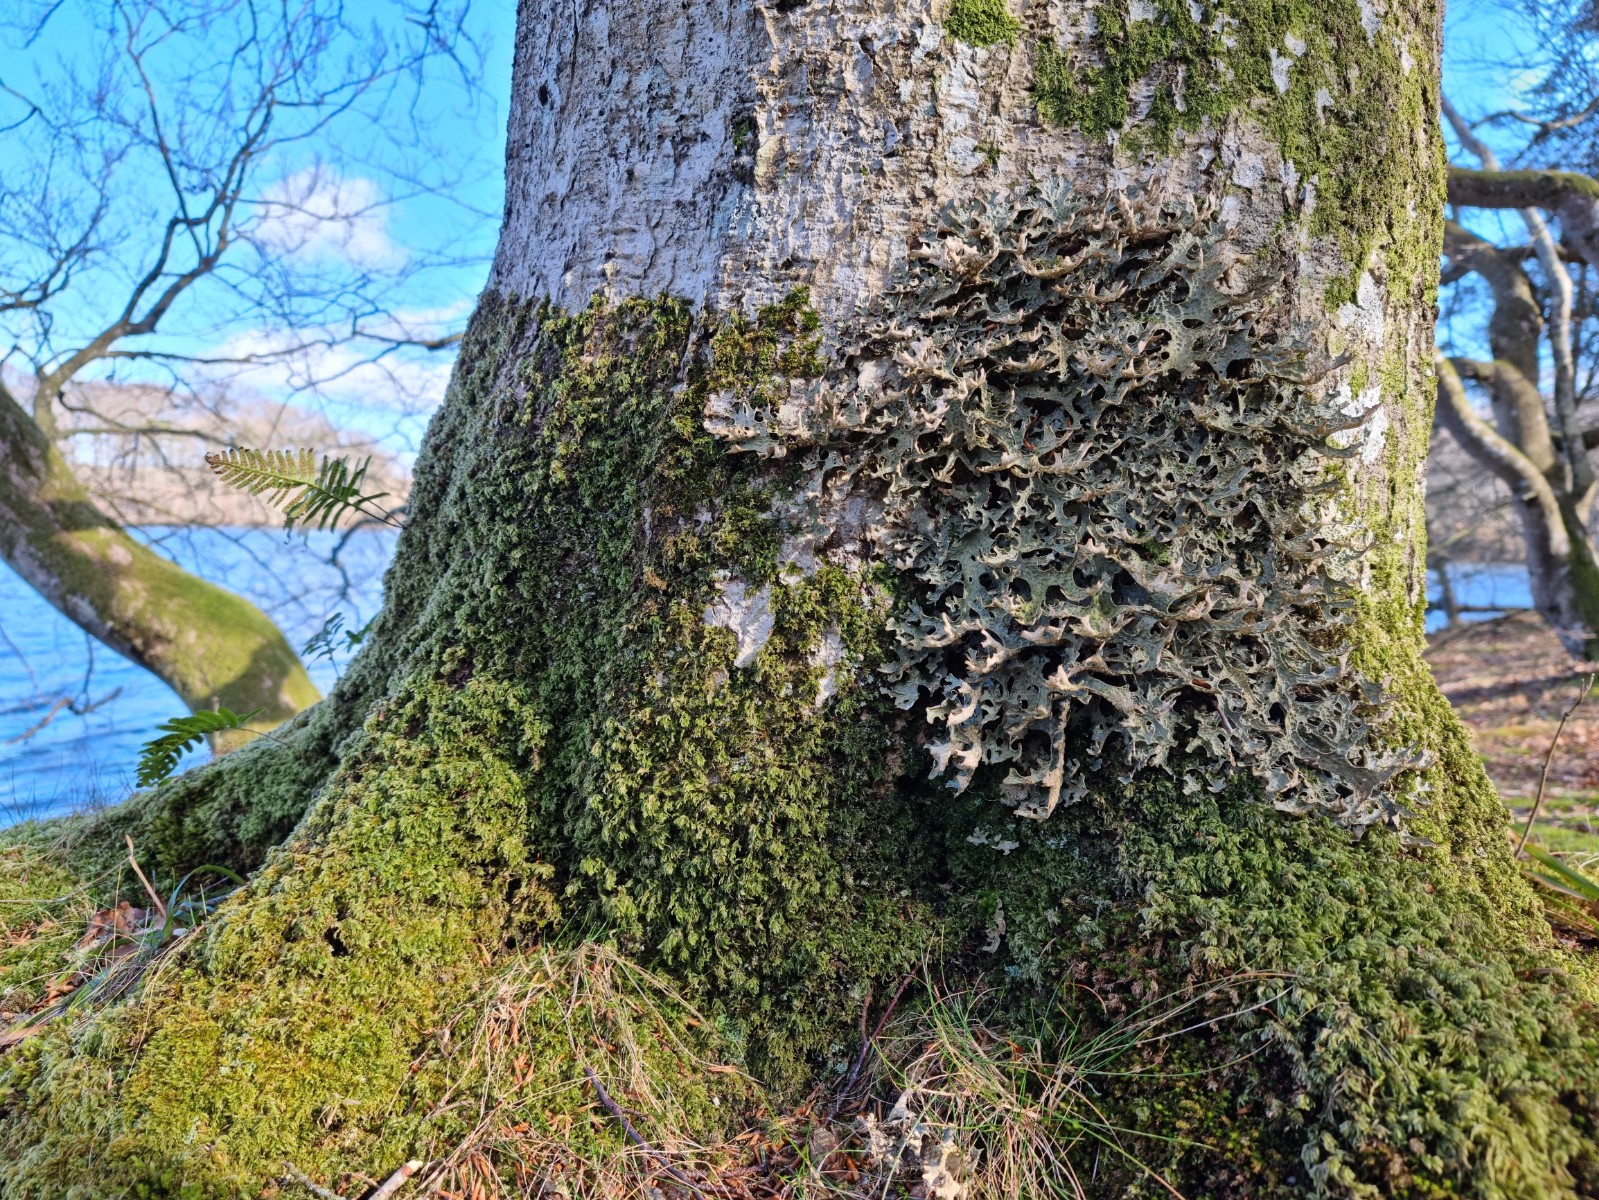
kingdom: Fungi
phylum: Ascomycota
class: Lecanoromycetes
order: Peltigerales
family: Lobariaceae
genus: Lobaria
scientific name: Lobaria pulmonaria
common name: almindelig lungelav
